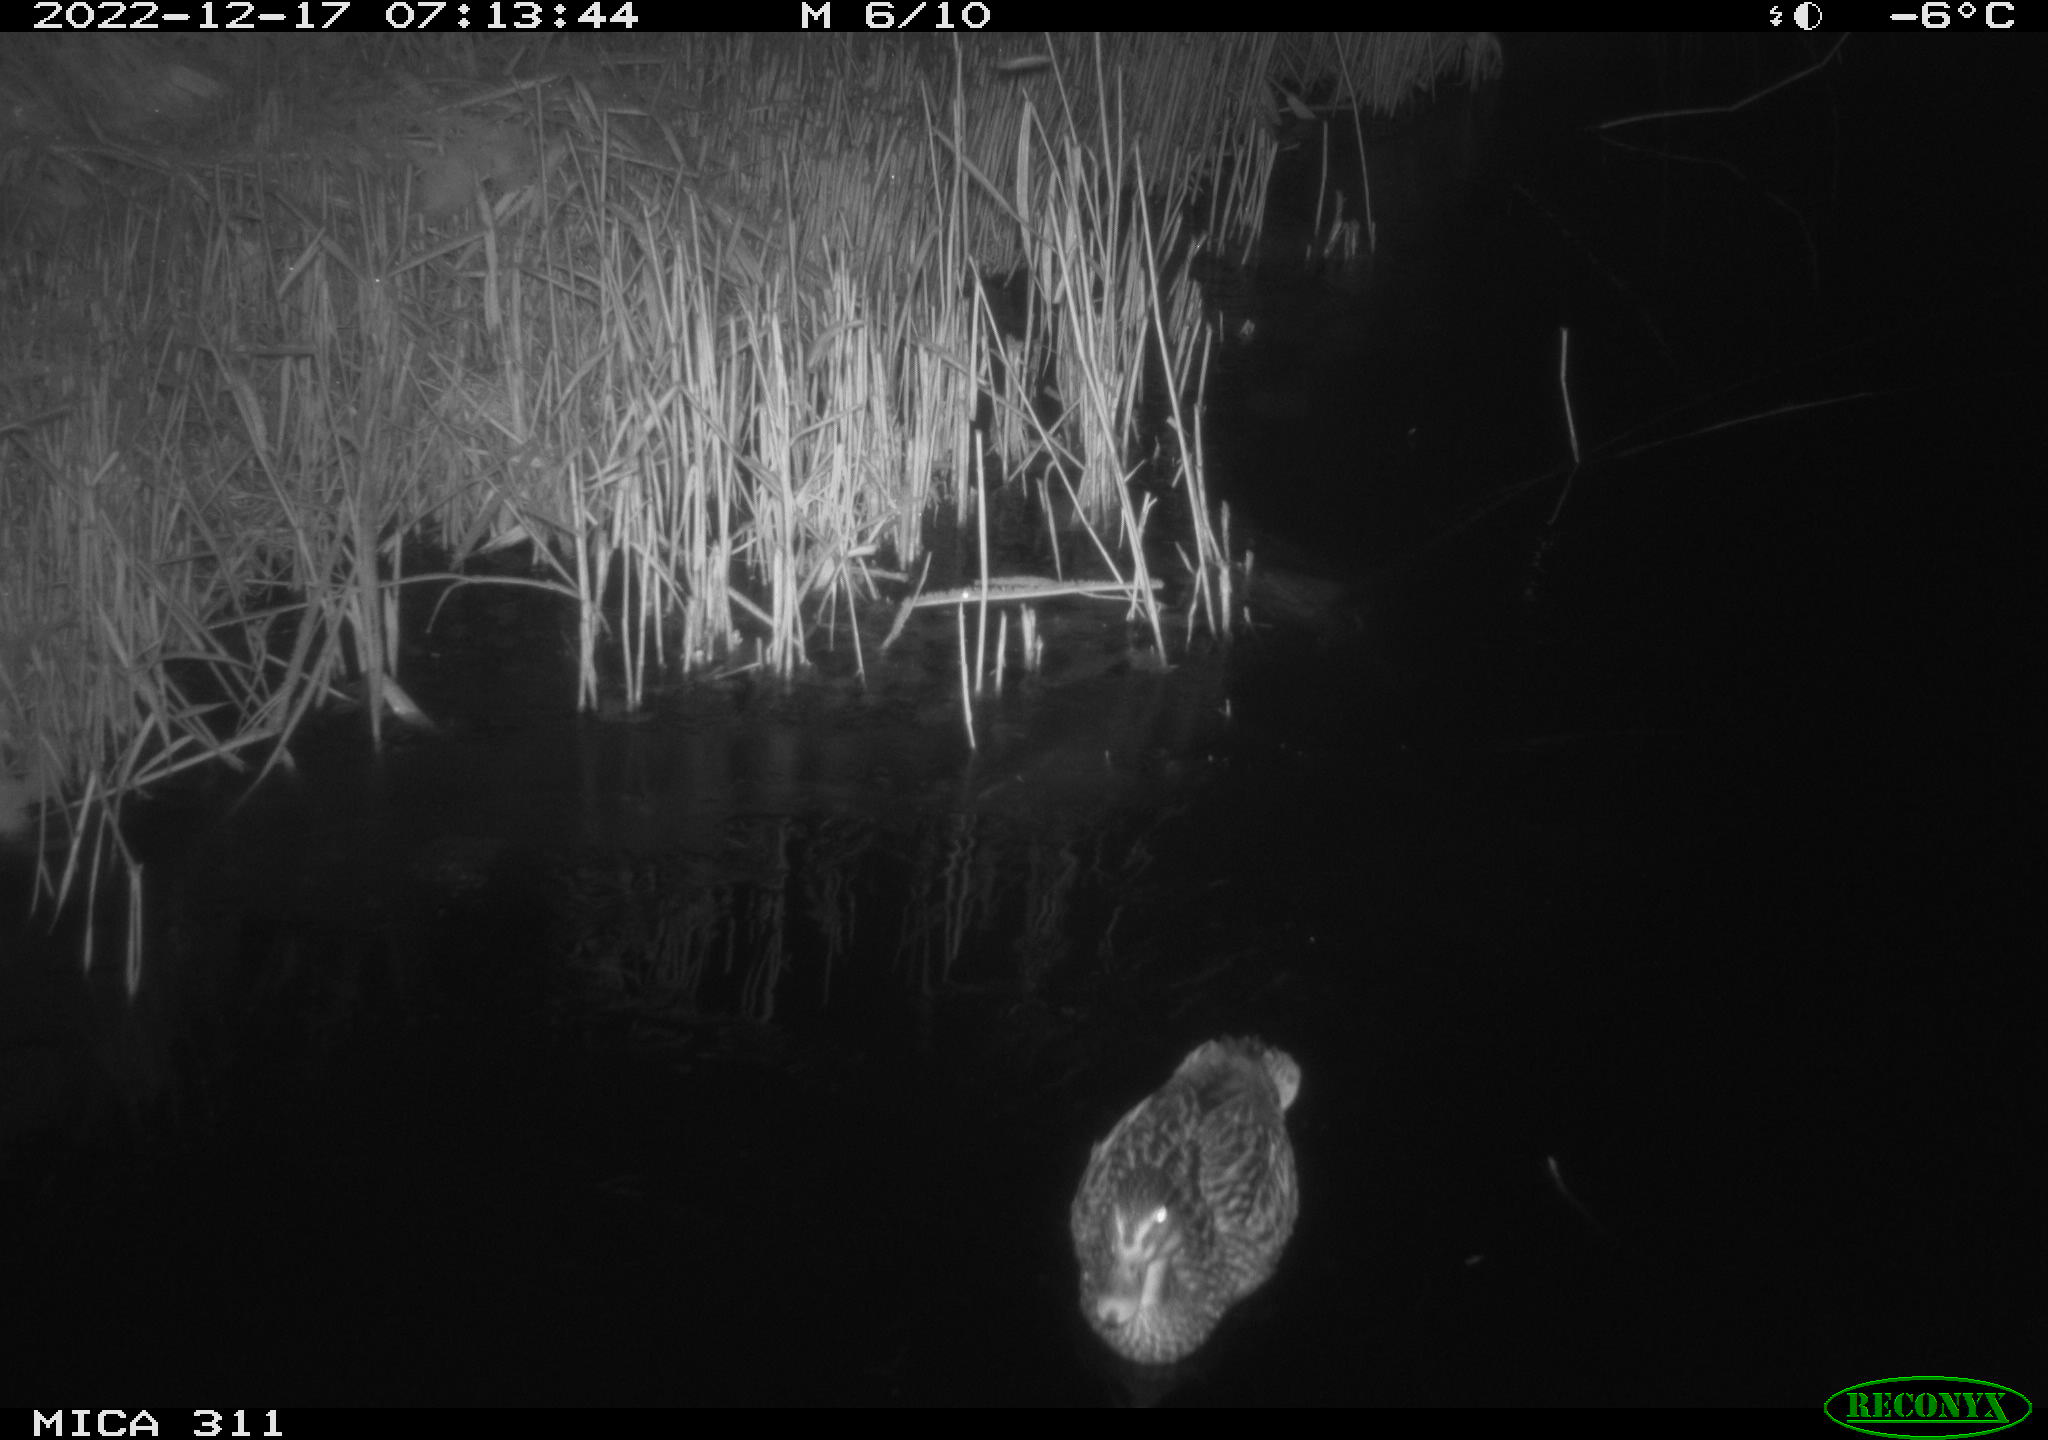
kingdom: Animalia
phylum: Chordata
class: Aves
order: Anseriformes
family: Anatidae
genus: Anas
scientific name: Anas
